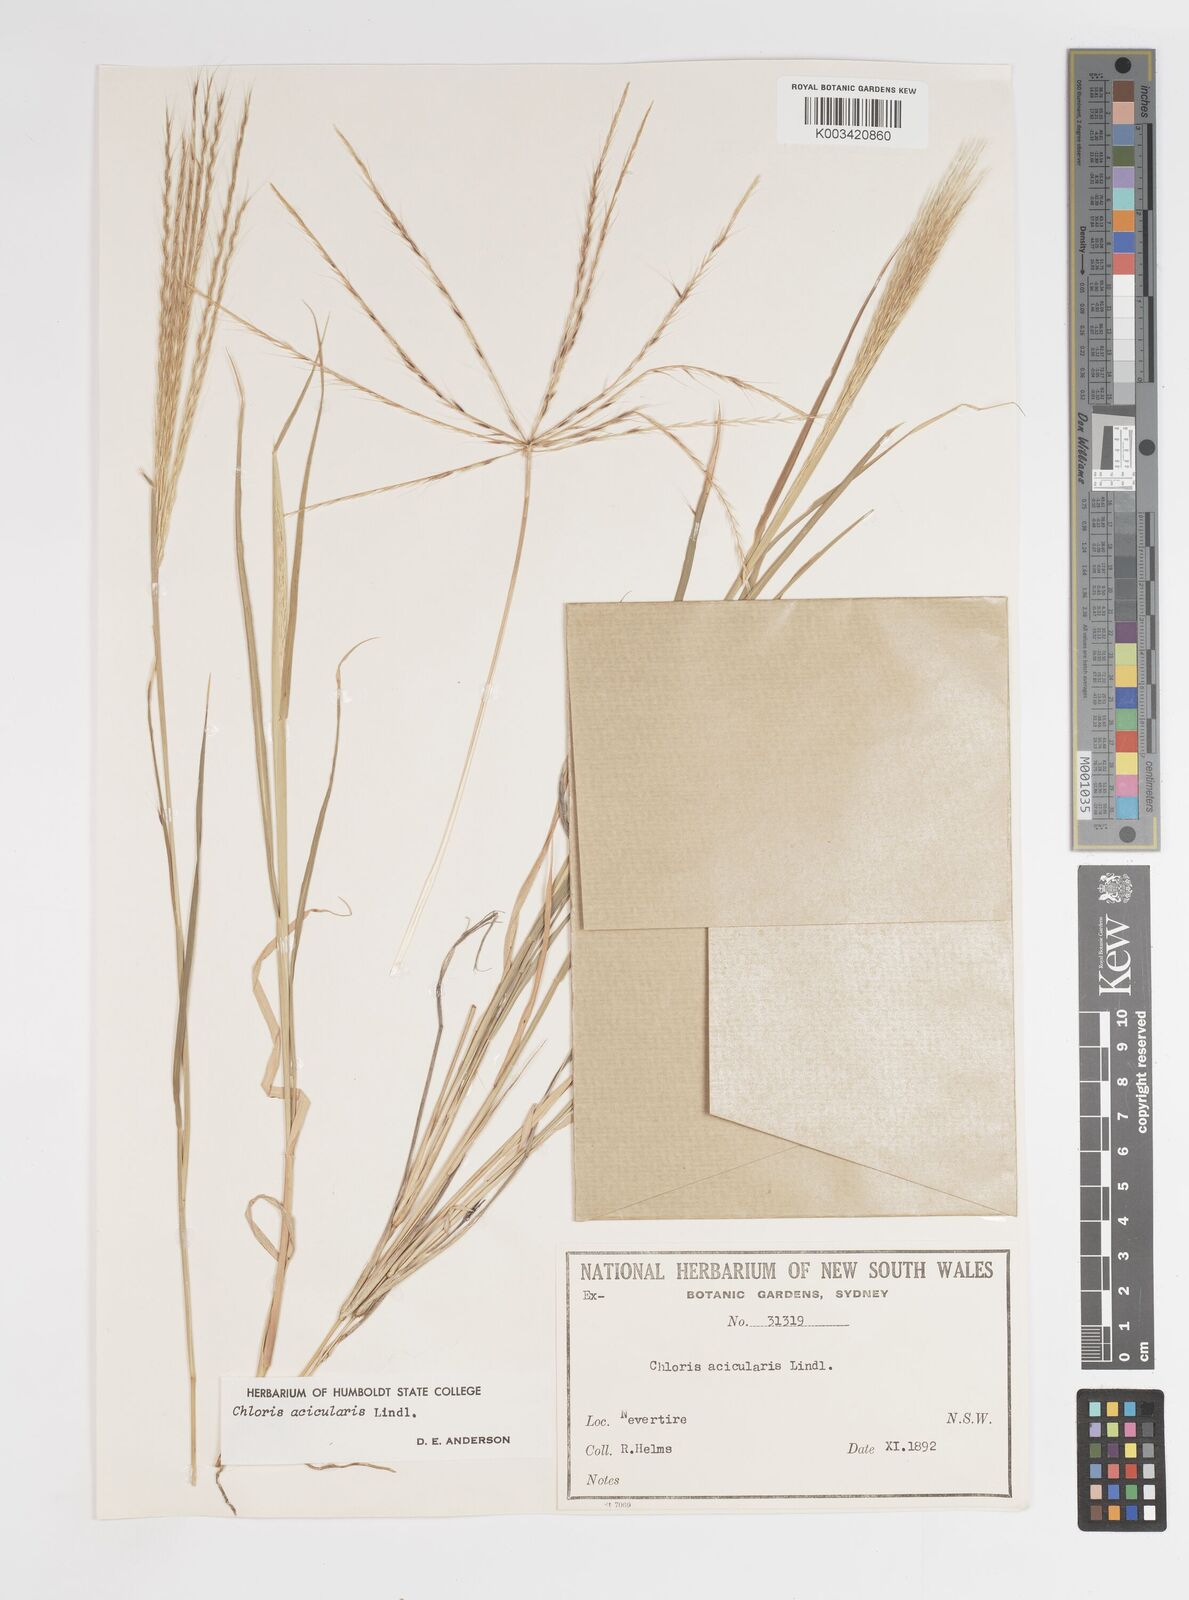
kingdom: Plantae
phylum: Tracheophyta
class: Liliopsida
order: Poales
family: Poaceae
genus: Enteropogon
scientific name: Enteropogon acicularis
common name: Curly windmill grass
